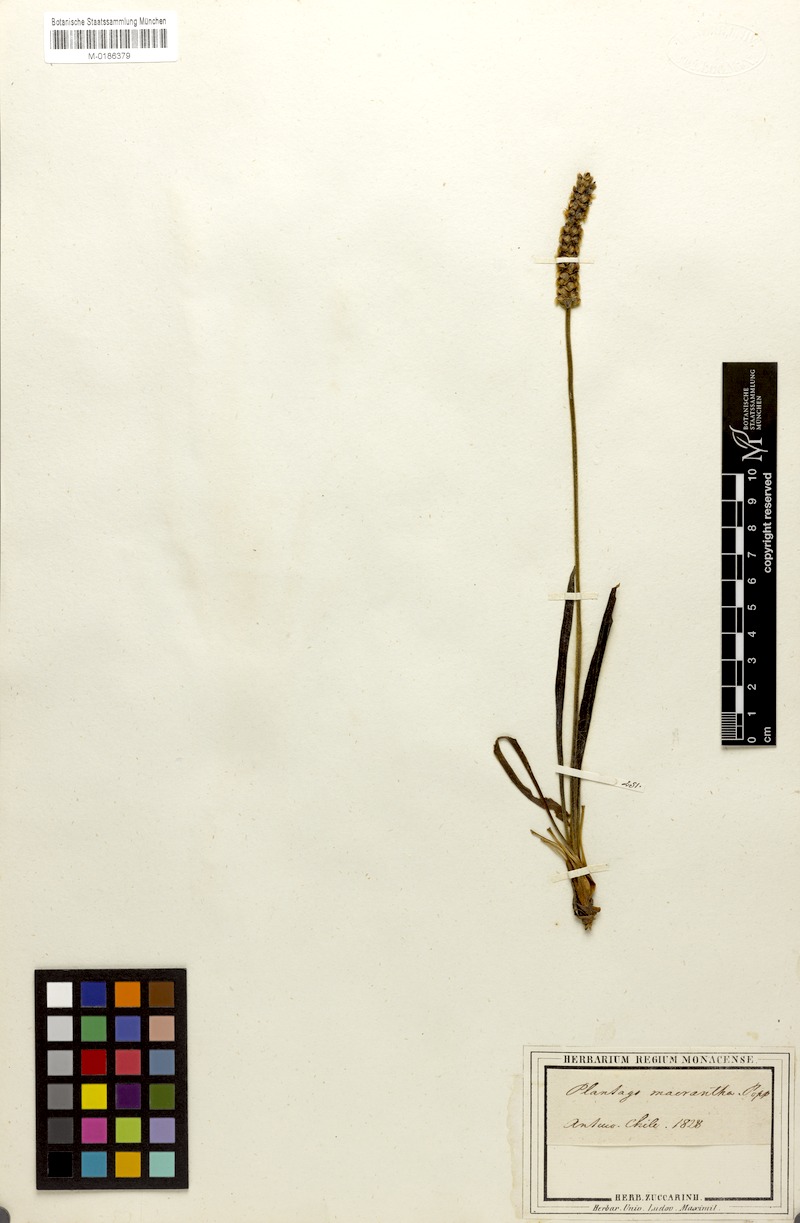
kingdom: Plantae
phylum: Tracheophyta
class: Magnoliopsida
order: Lamiales
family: Plantaginaceae
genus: Plantago
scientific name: Plantago brasiliensis
